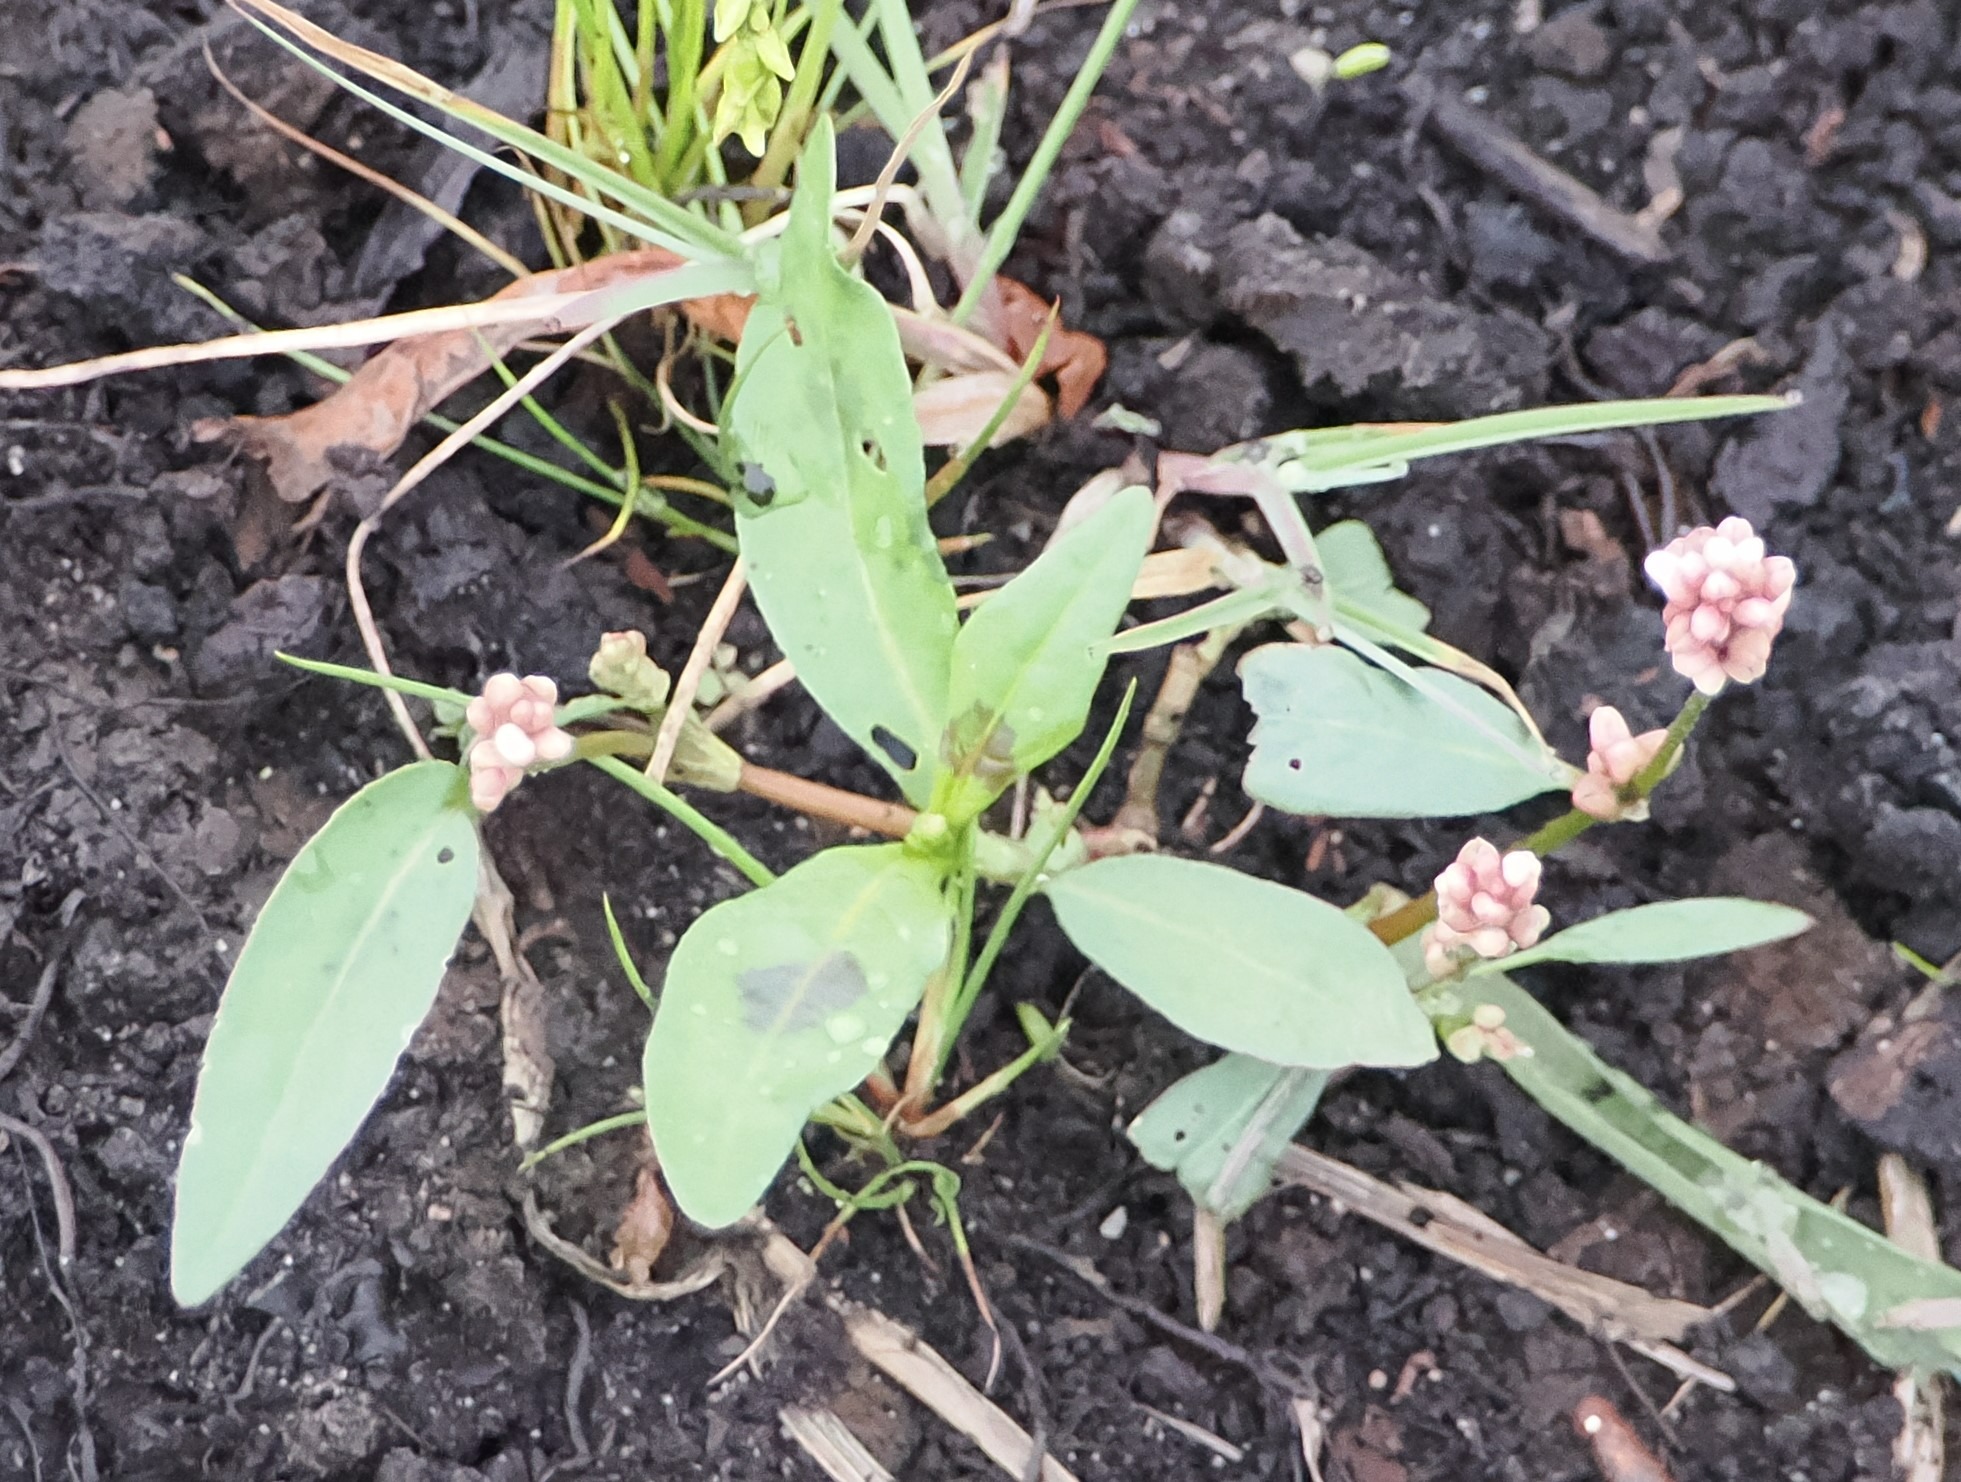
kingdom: Plantae
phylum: Tracheophyta
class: Magnoliopsida
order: Caryophyllales
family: Polygonaceae
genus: Persicaria
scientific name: Persicaria maculosa
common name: Fersken-pileurt
